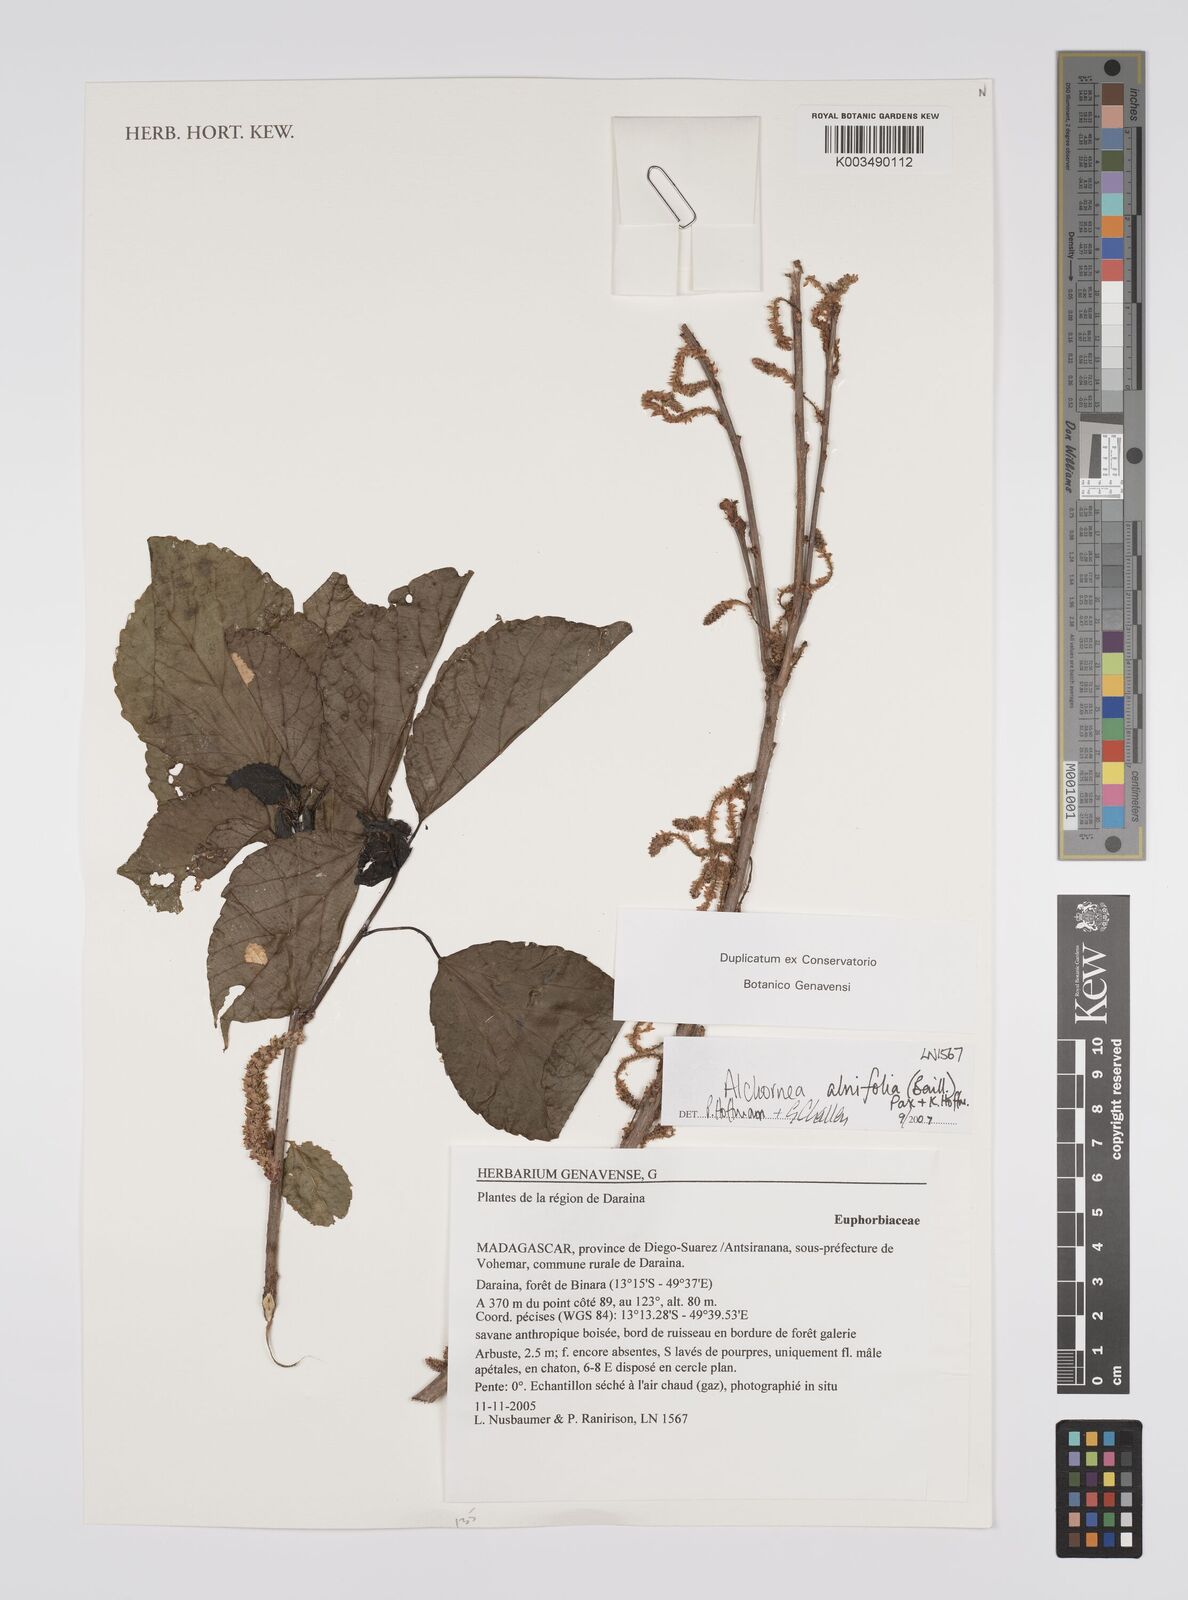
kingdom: Plantae
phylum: Tracheophyta
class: Magnoliopsida
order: Malpighiales
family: Euphorbiaceae
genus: Alchornea
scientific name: Alchornea alnifolia
